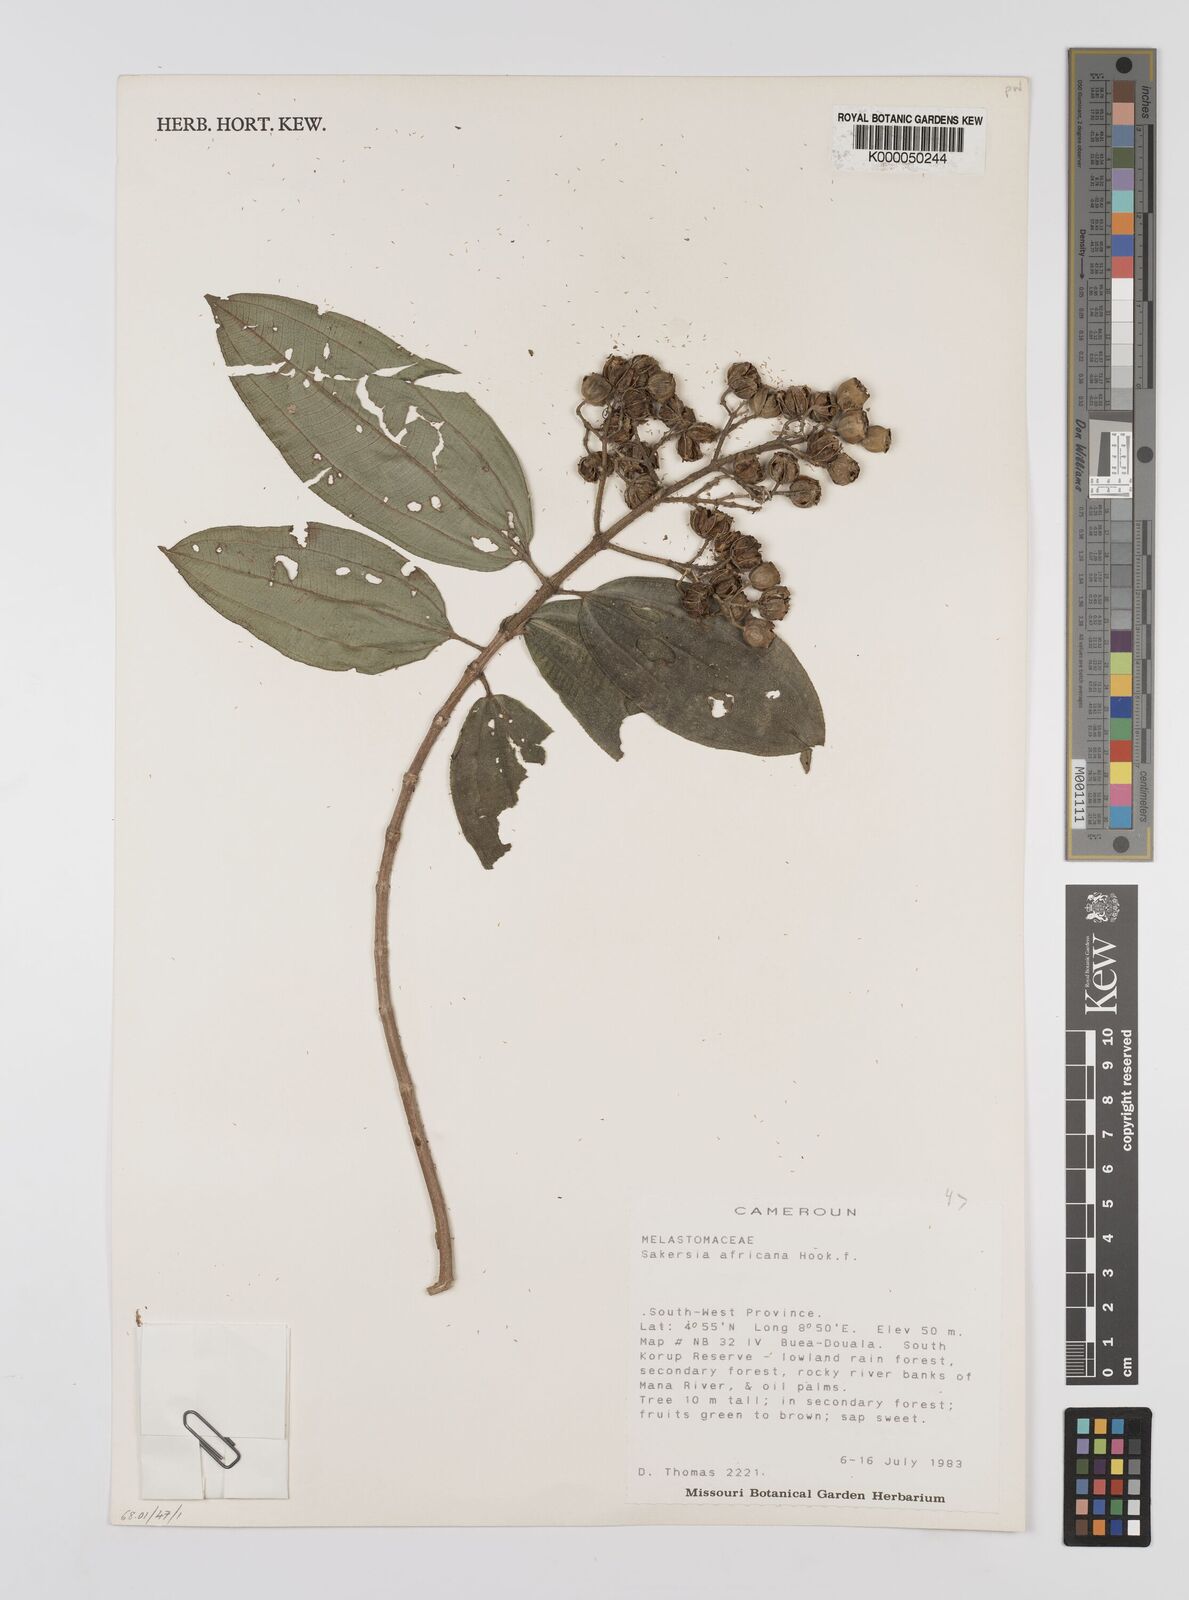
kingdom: Plantae
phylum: Tracheophyta
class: Magnoliopsida
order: Myrtales
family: Melastomataceae
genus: Dichaetanthera
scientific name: Dichaetanthera
